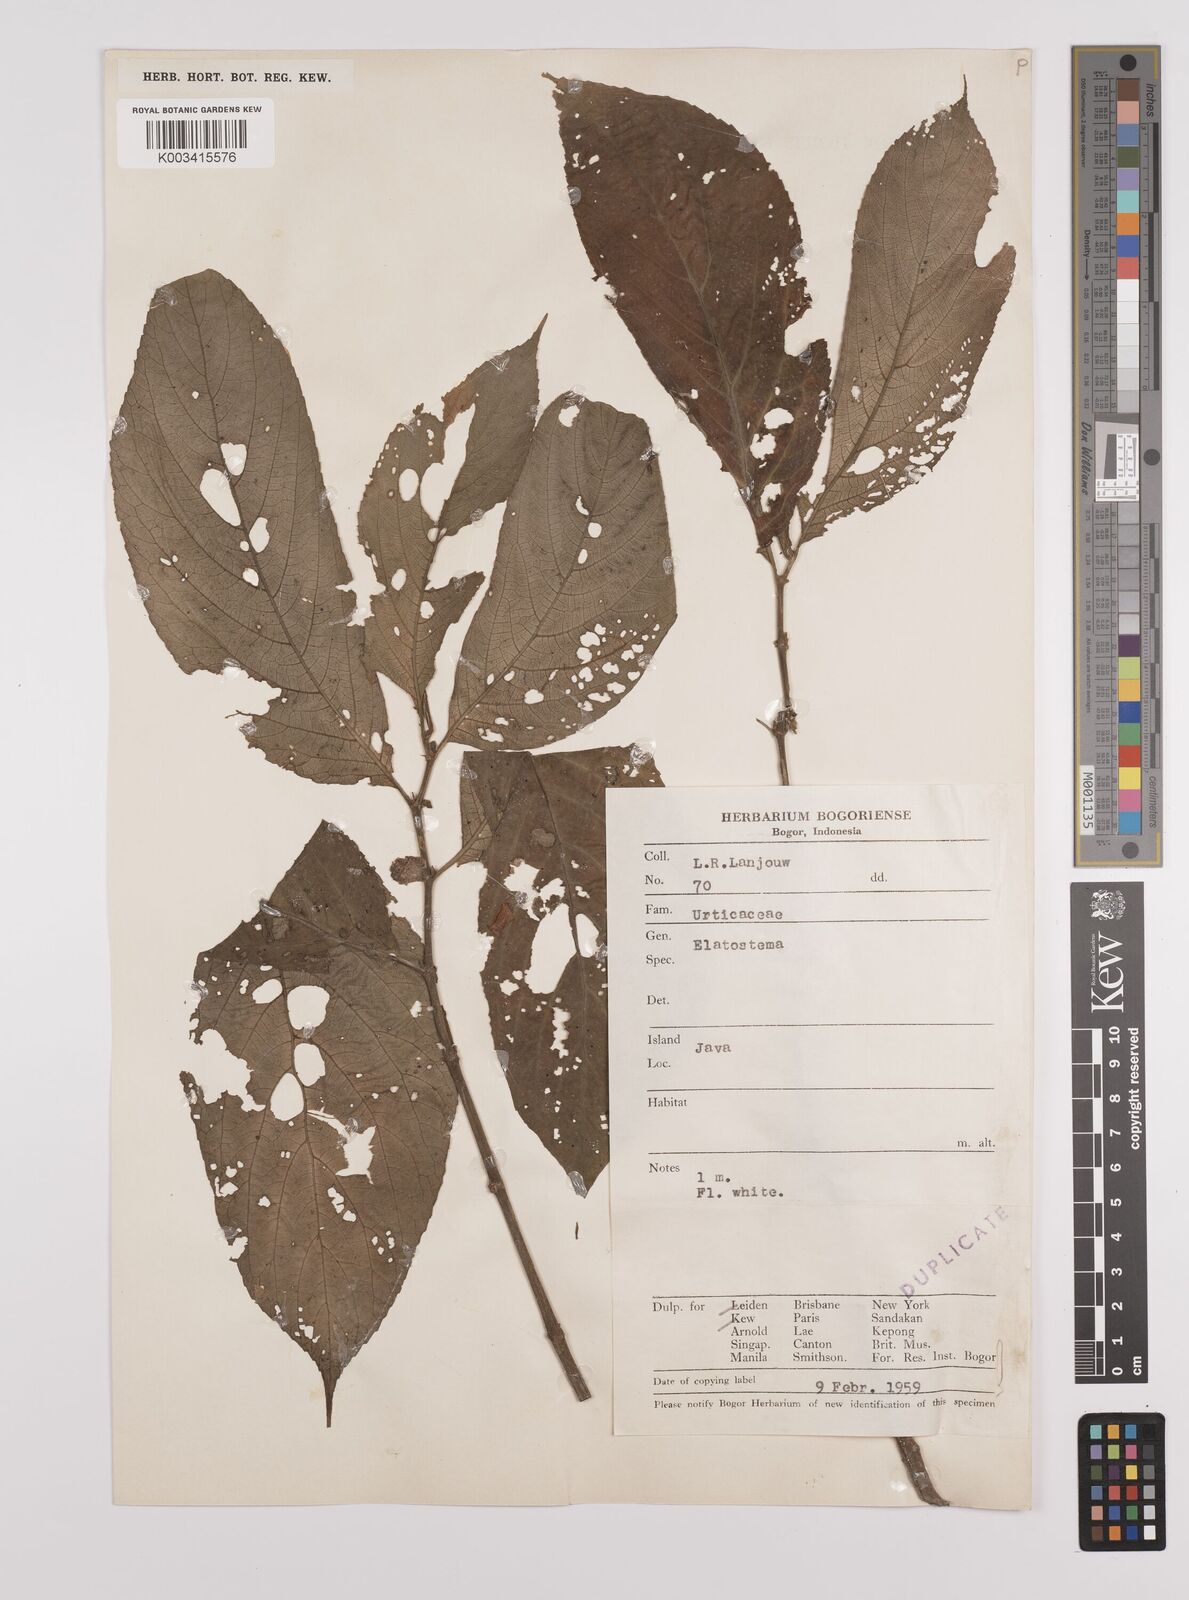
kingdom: Plantae
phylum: Tracheophyta
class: Magnoliopsida
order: Rosales
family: Urticaceae
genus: Elatostema
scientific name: Elatostema
